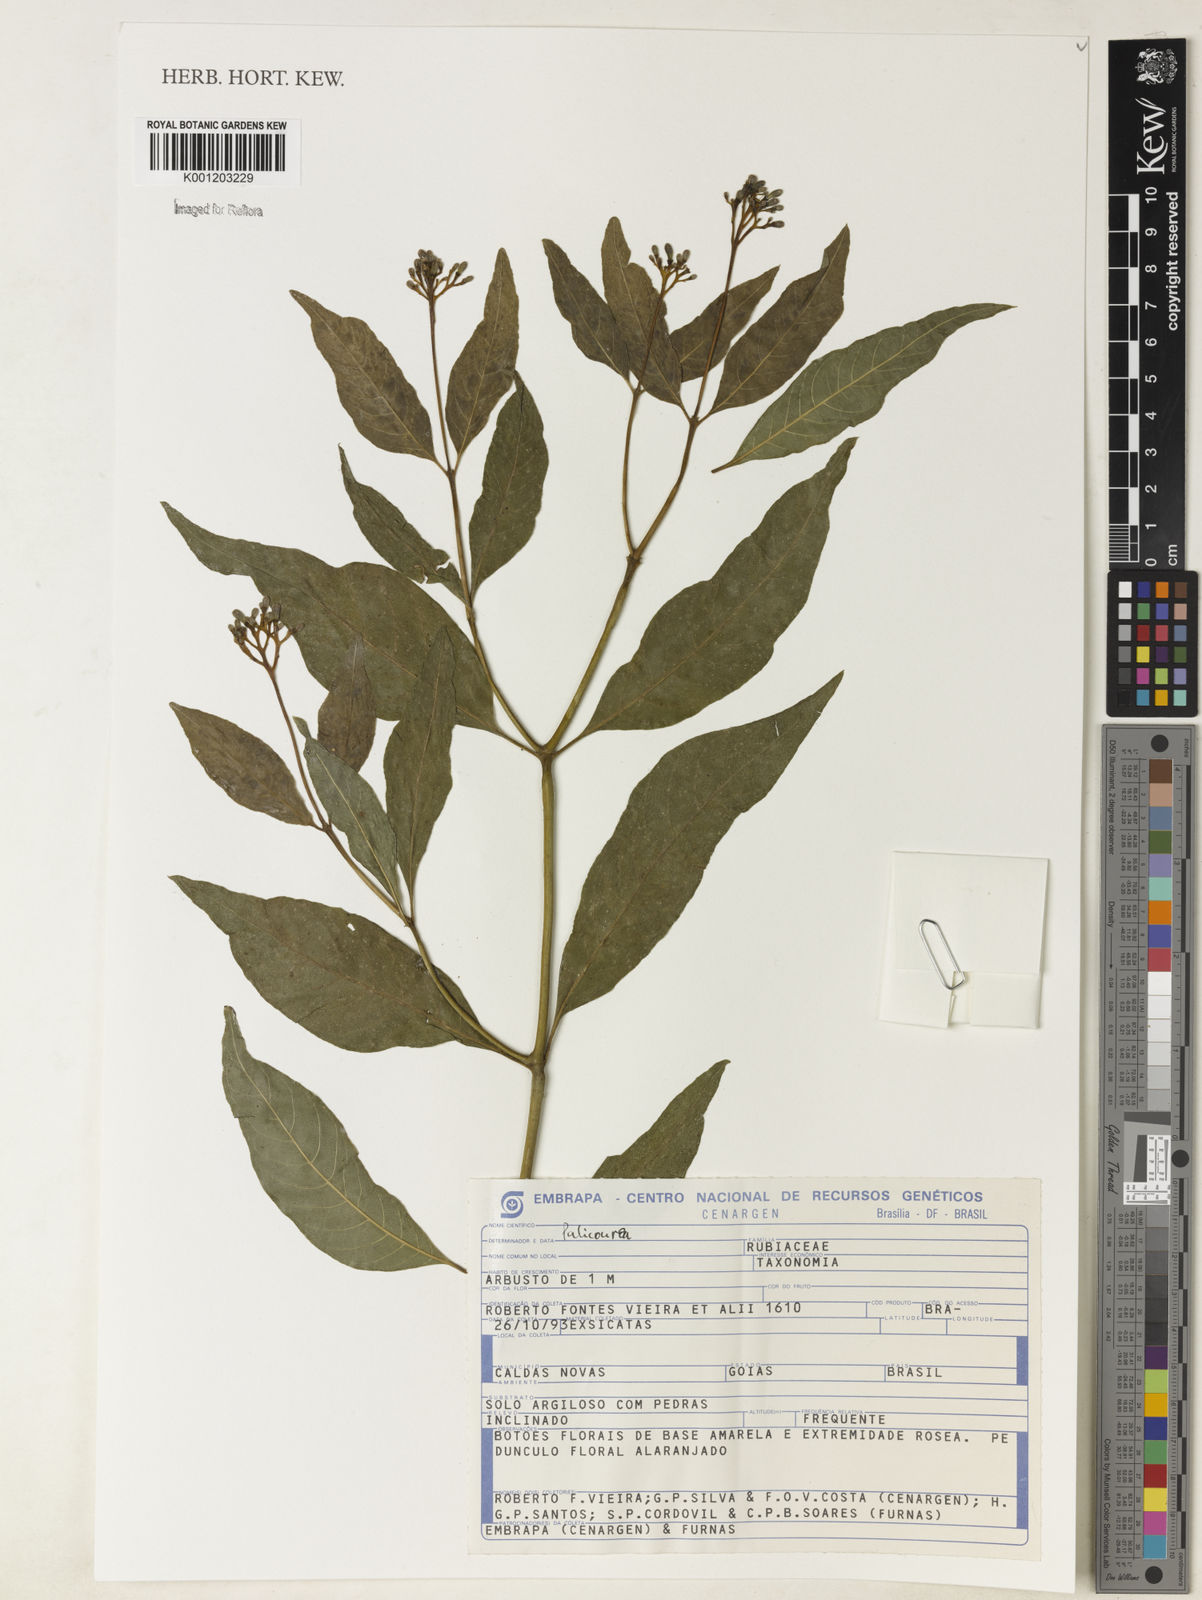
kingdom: Plantae
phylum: Tracheophyta
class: Magnoliopsida
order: Gentianales
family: Rubiaceae
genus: Palicourea
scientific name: Palicourea
